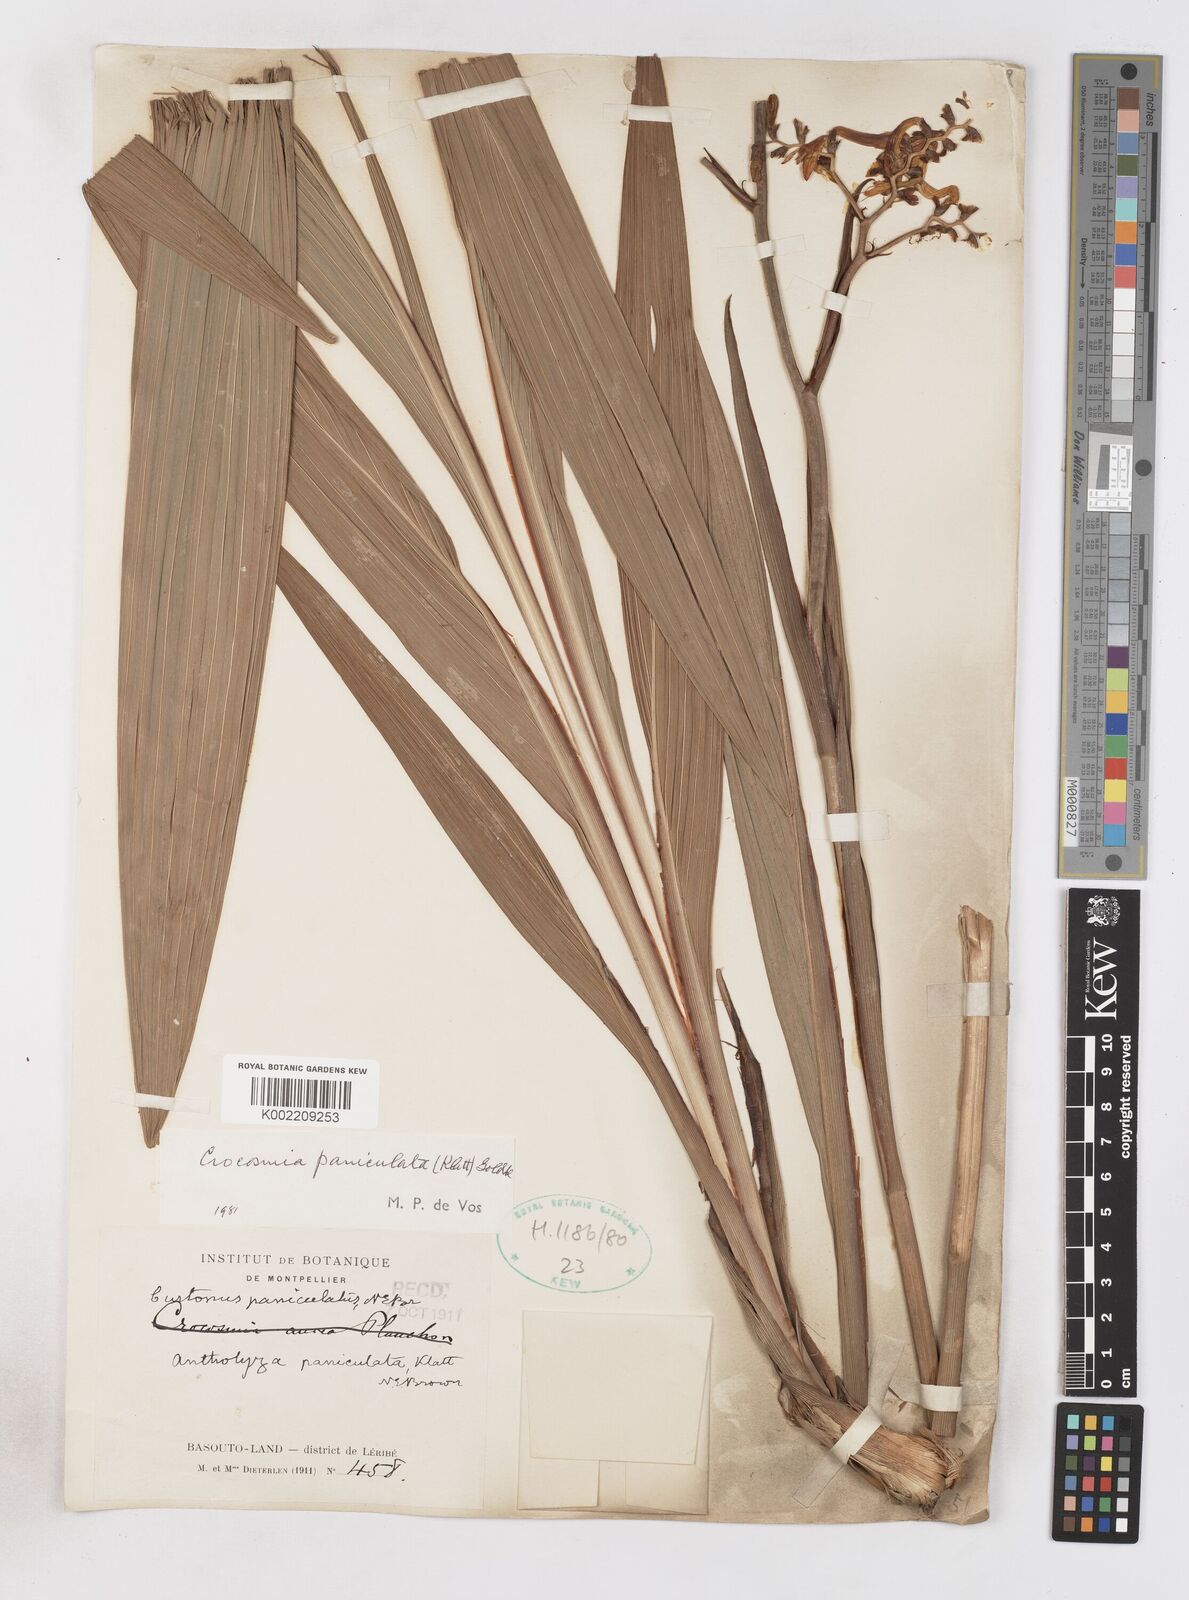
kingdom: Plantae
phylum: Tracheophyta
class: Liliopsida
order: Asparagales
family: Iridaceae
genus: Crocosmia
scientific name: Crocosmia paniculata
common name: Aunt eliza
